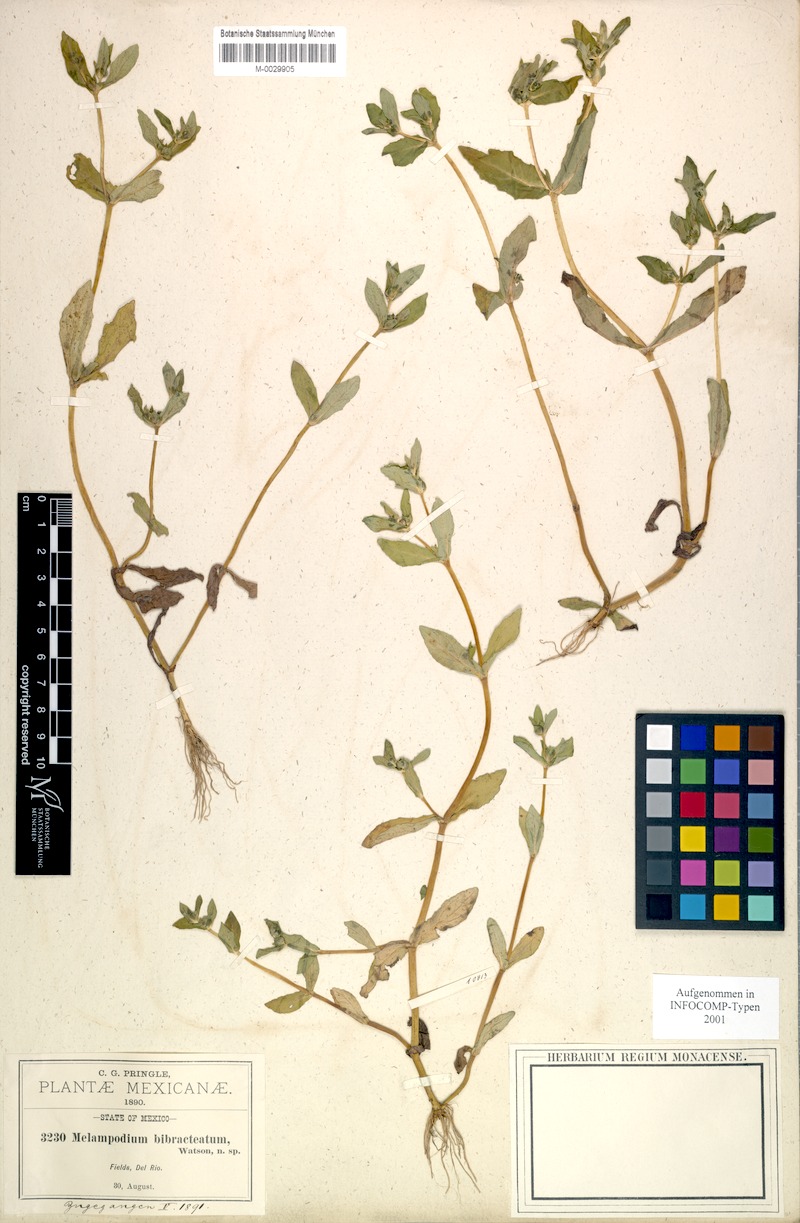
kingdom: Plantae
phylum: Tracheophyta
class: Magnoliopsida
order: Asterales
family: Asteraceae
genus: Melampodium
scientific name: Melampodium bibracteatum
